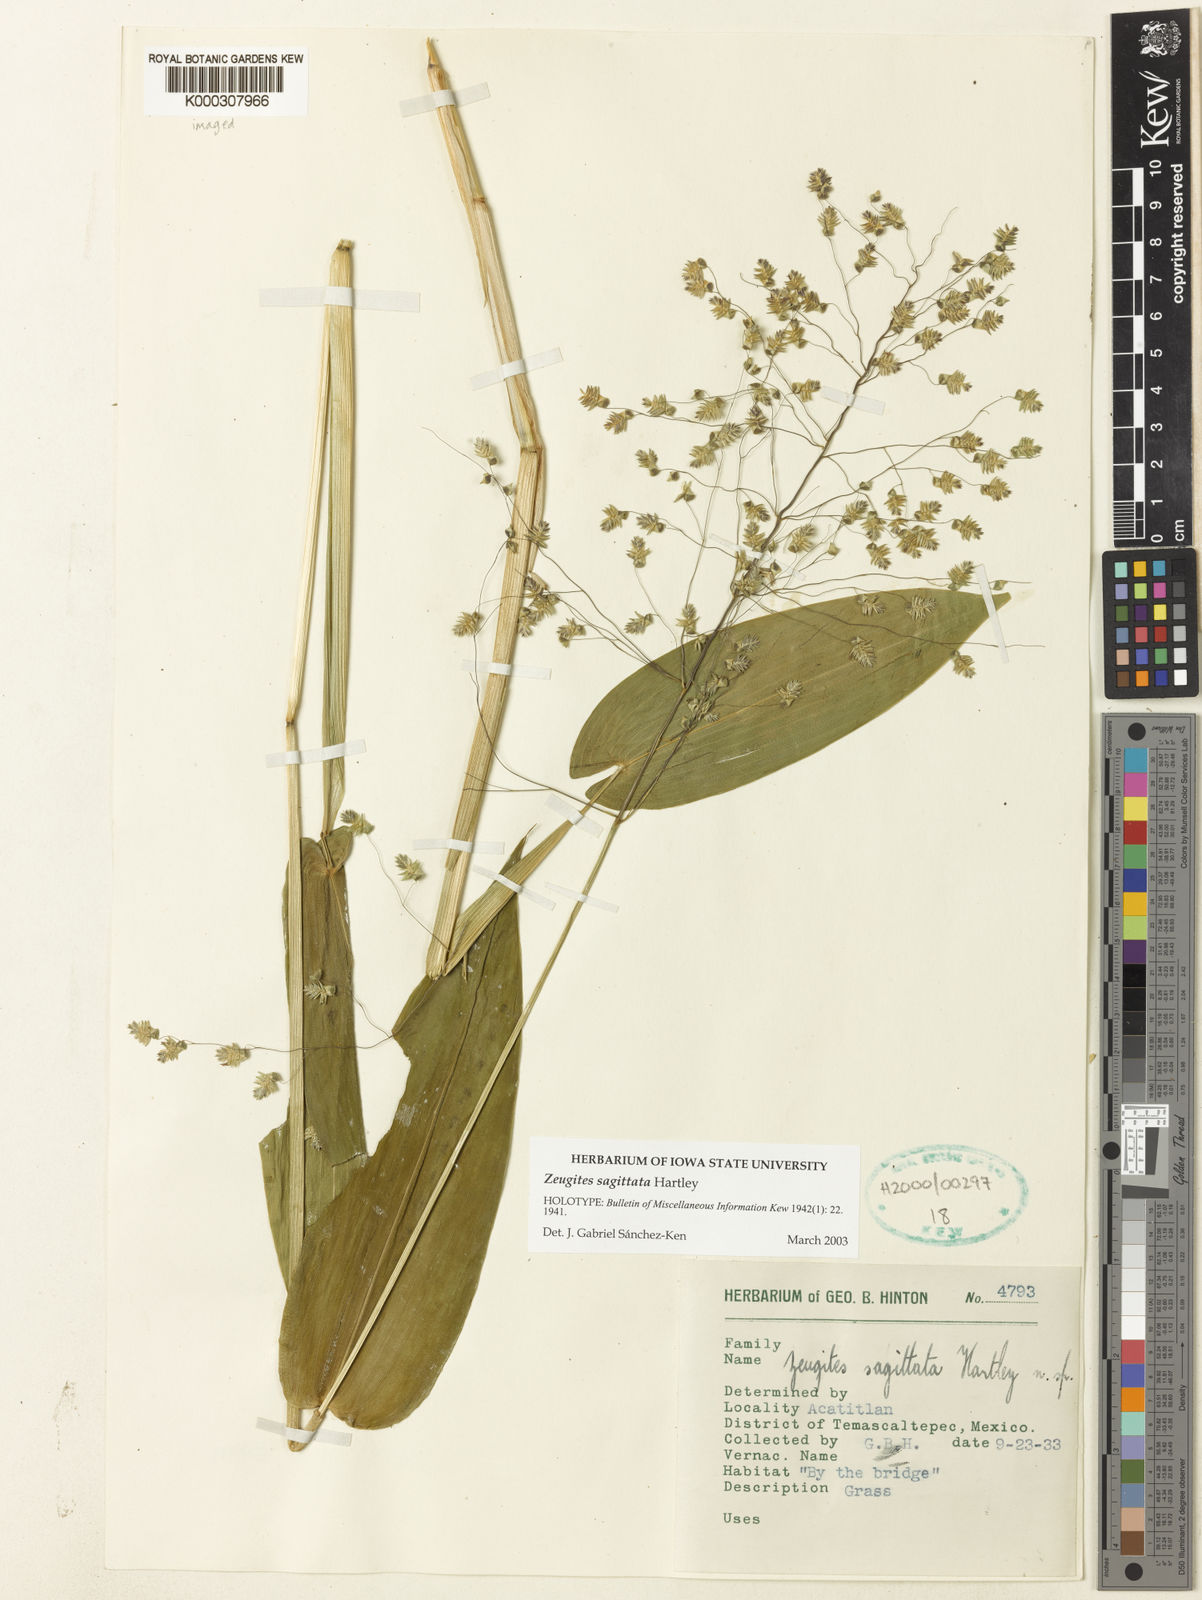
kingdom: Plantae
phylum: Tracheophyta
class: Liliopsida
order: Poales
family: Poaceae
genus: Zeugites
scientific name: Zeugites sagittatus
